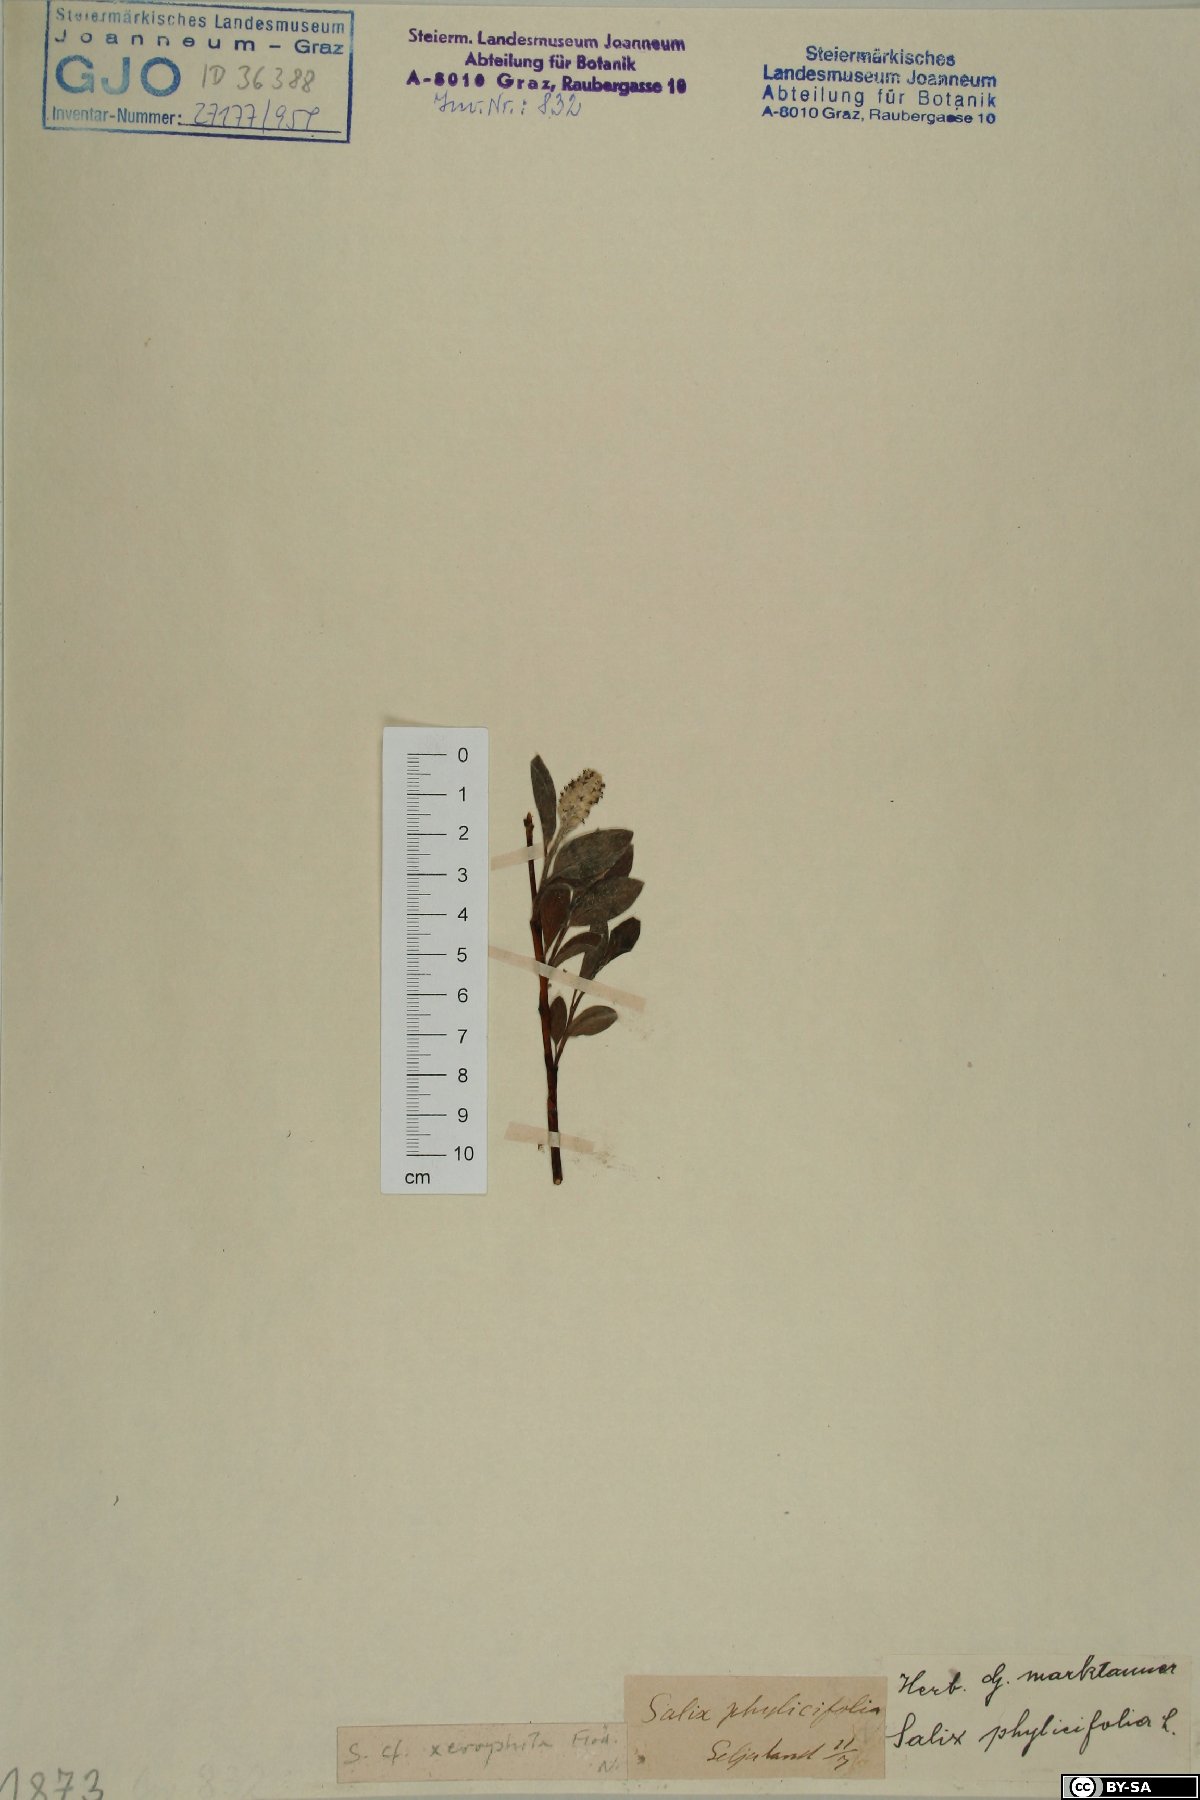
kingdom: Plantae
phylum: Tracheophyta
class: Magnoliopsida
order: Malpighiales
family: Salicaceae
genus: Salix
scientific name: Salix bebbiana
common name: Bebb's willow
